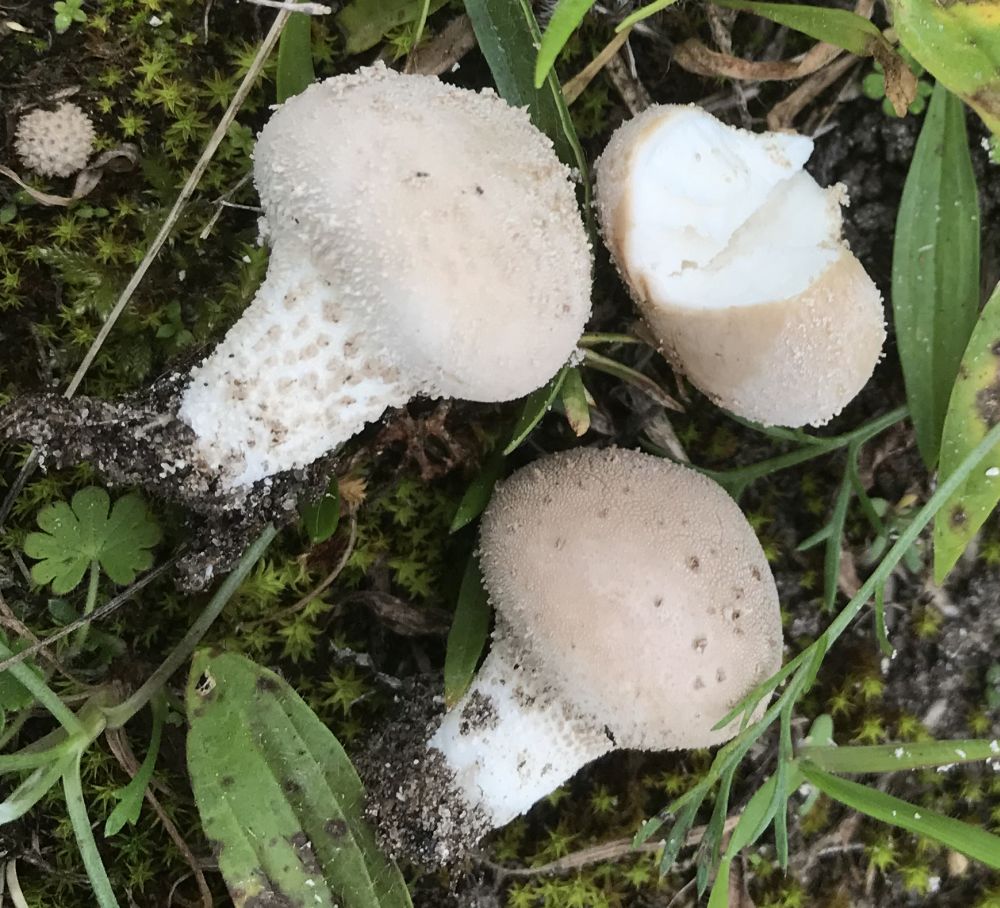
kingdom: Fungi
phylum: Basidiomycota
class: Agaricomycetes
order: Agaricales
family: Lycoperdaceae
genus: Lycoperdon
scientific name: Lycoperdon lividum
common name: mark-støvbold
